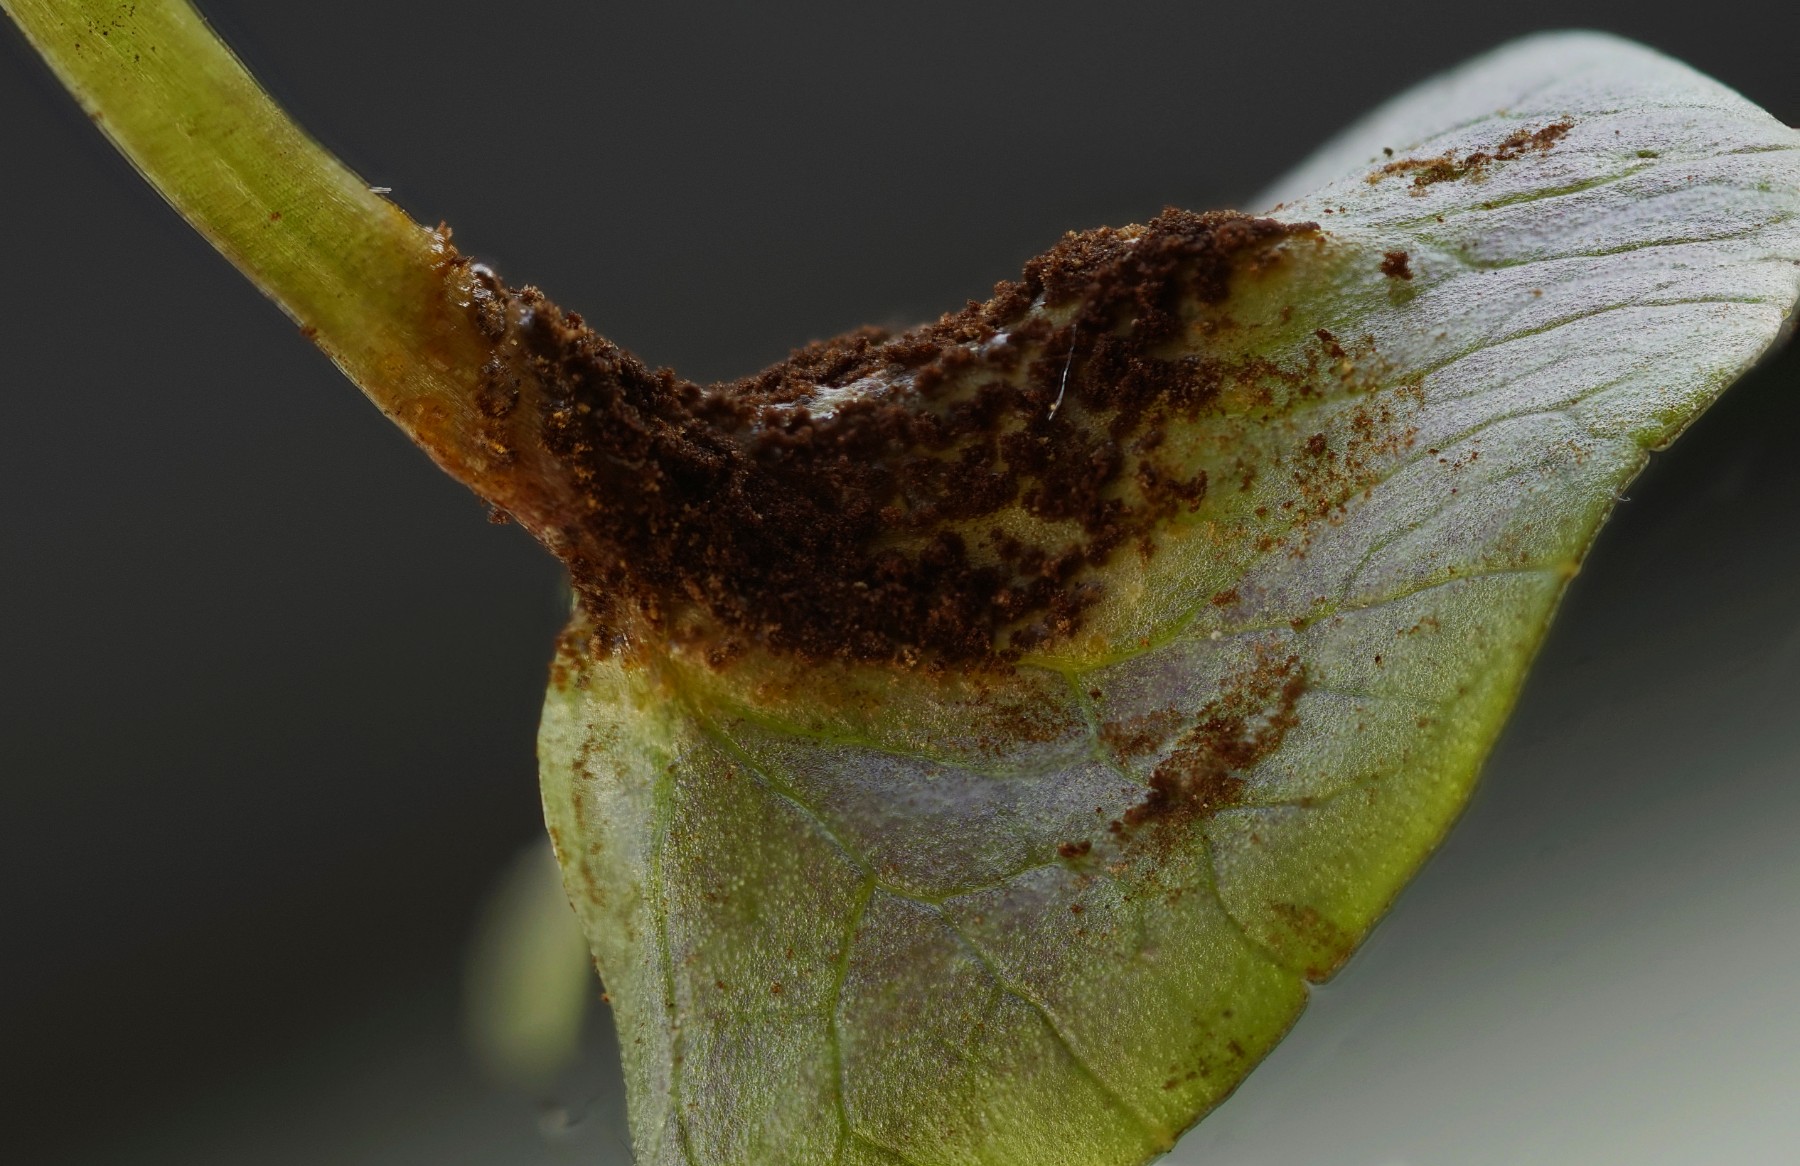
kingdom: Fungi
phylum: Basidiomycota
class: Pucciniomycetes
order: Pucciniales
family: Pucciniaceae
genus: Uromyces
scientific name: Uromyces ficariae
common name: vorterod-encellerust
